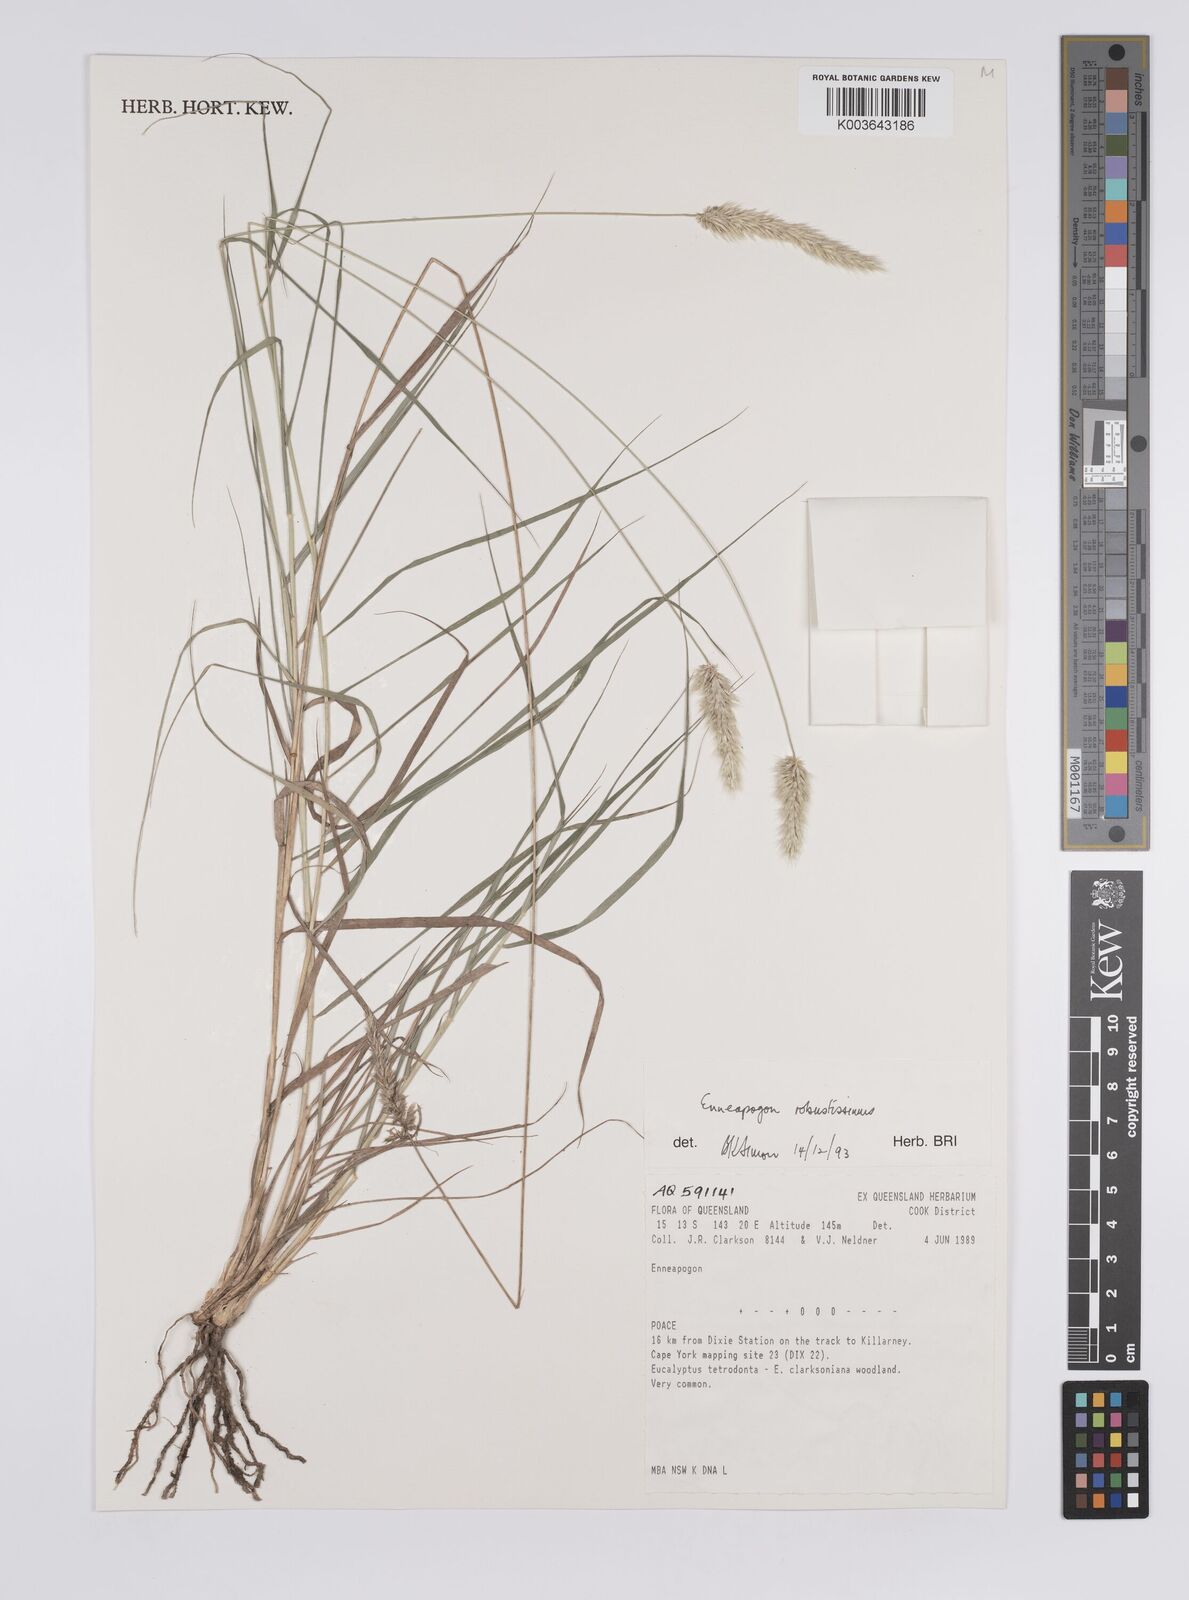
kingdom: Plantae
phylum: Tracheophyta
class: Liliopsida
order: Poales
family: Poaceae
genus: Enneapogon
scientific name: Enneapogon robustissimus
